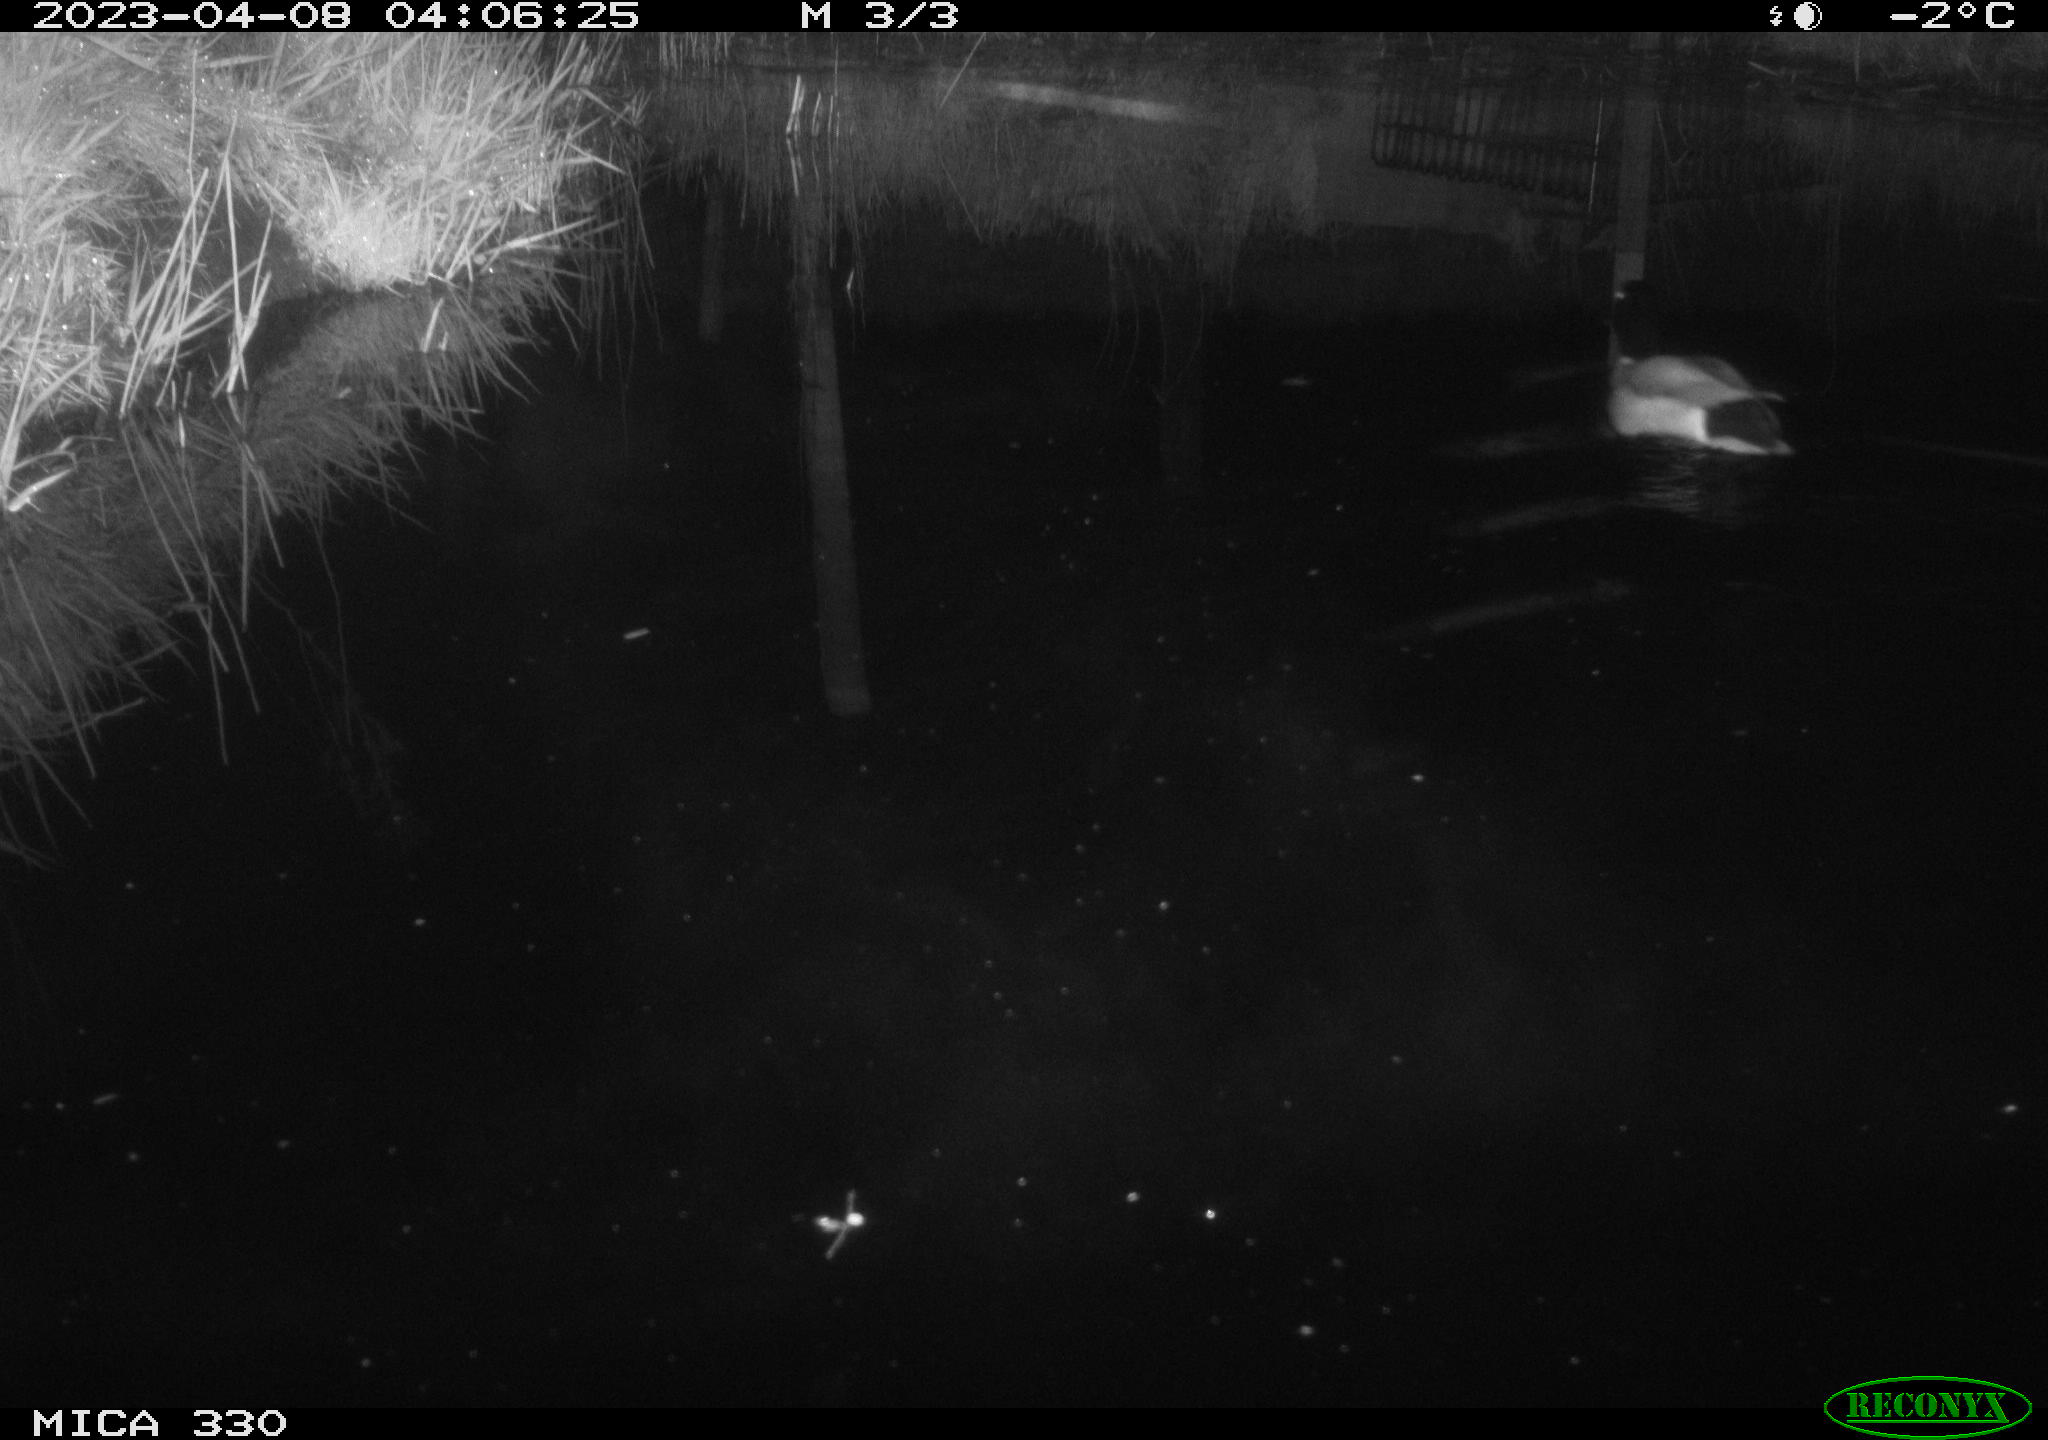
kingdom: Animalia
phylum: Chordata
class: Aves
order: Anseriformes
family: Anatidae
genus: Anas
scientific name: Anas
